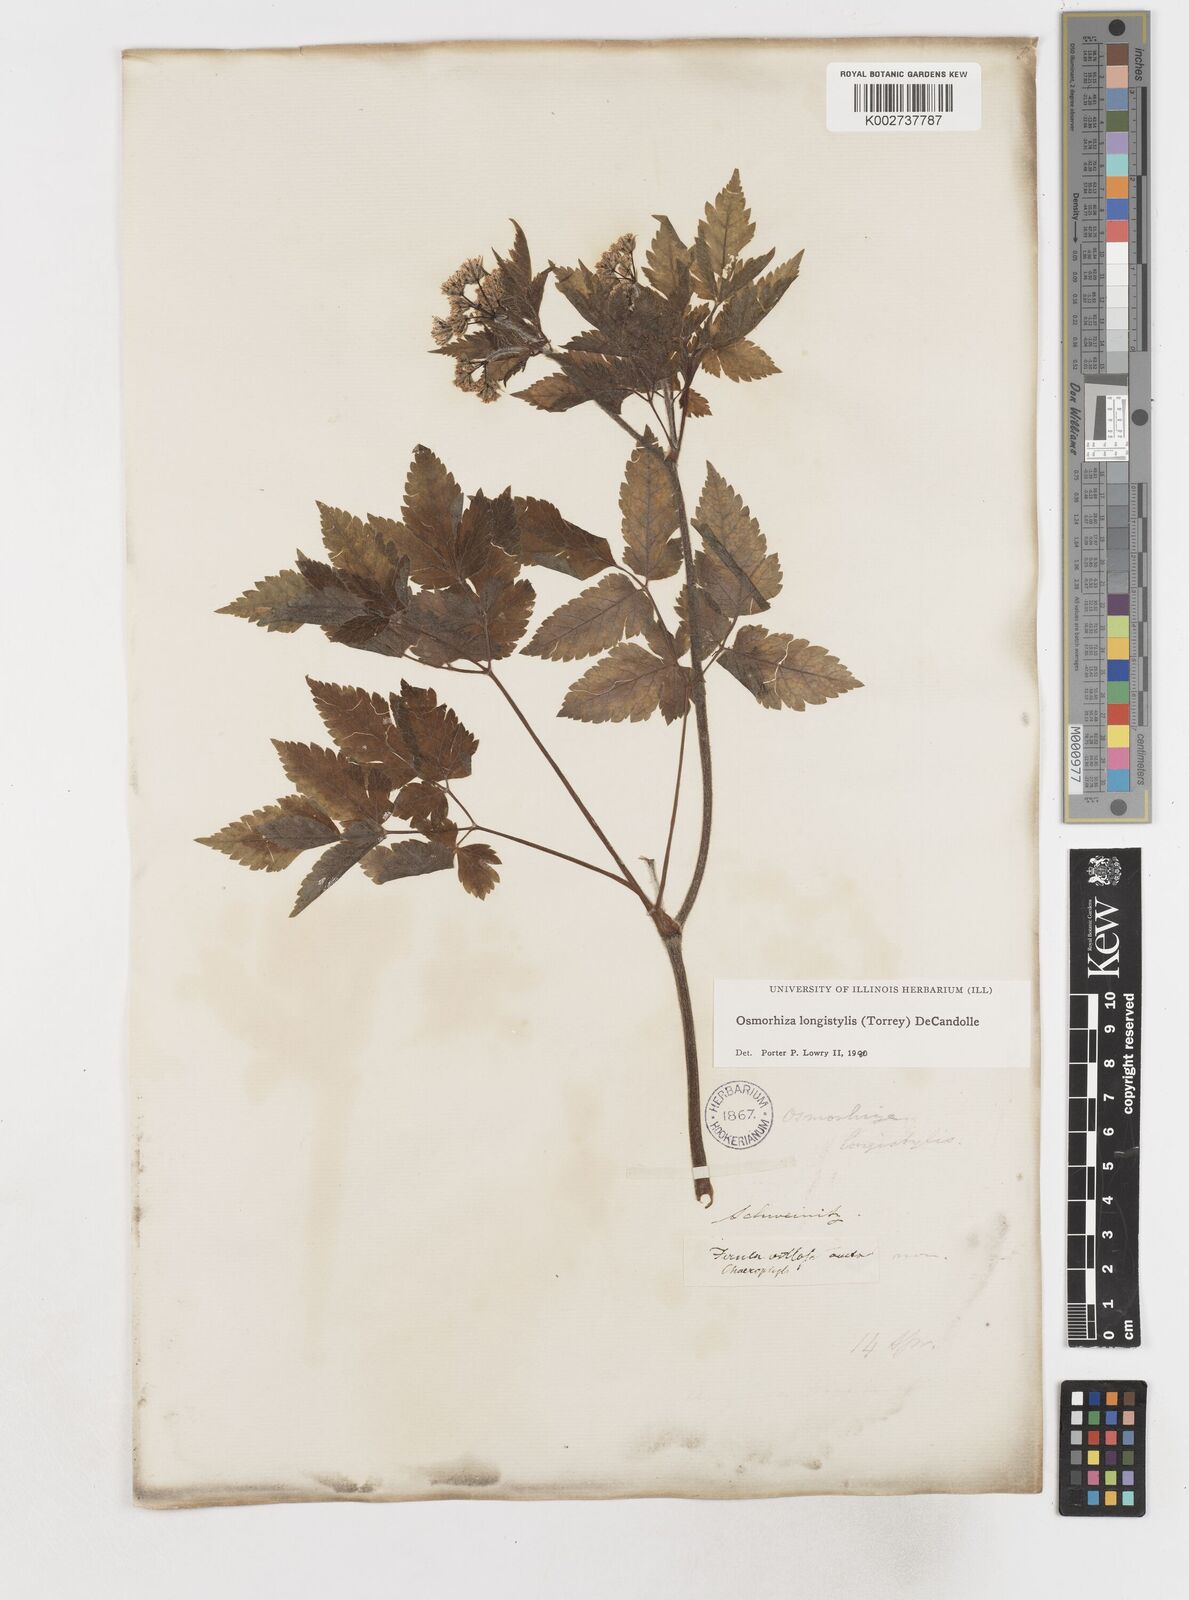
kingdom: Plantae
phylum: Tracheophyta
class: Magnoliopsida
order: Apiales
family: Apiaceae
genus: Osmorhiza
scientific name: Osmorhiza longistylis
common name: Smooth sweet cicely
